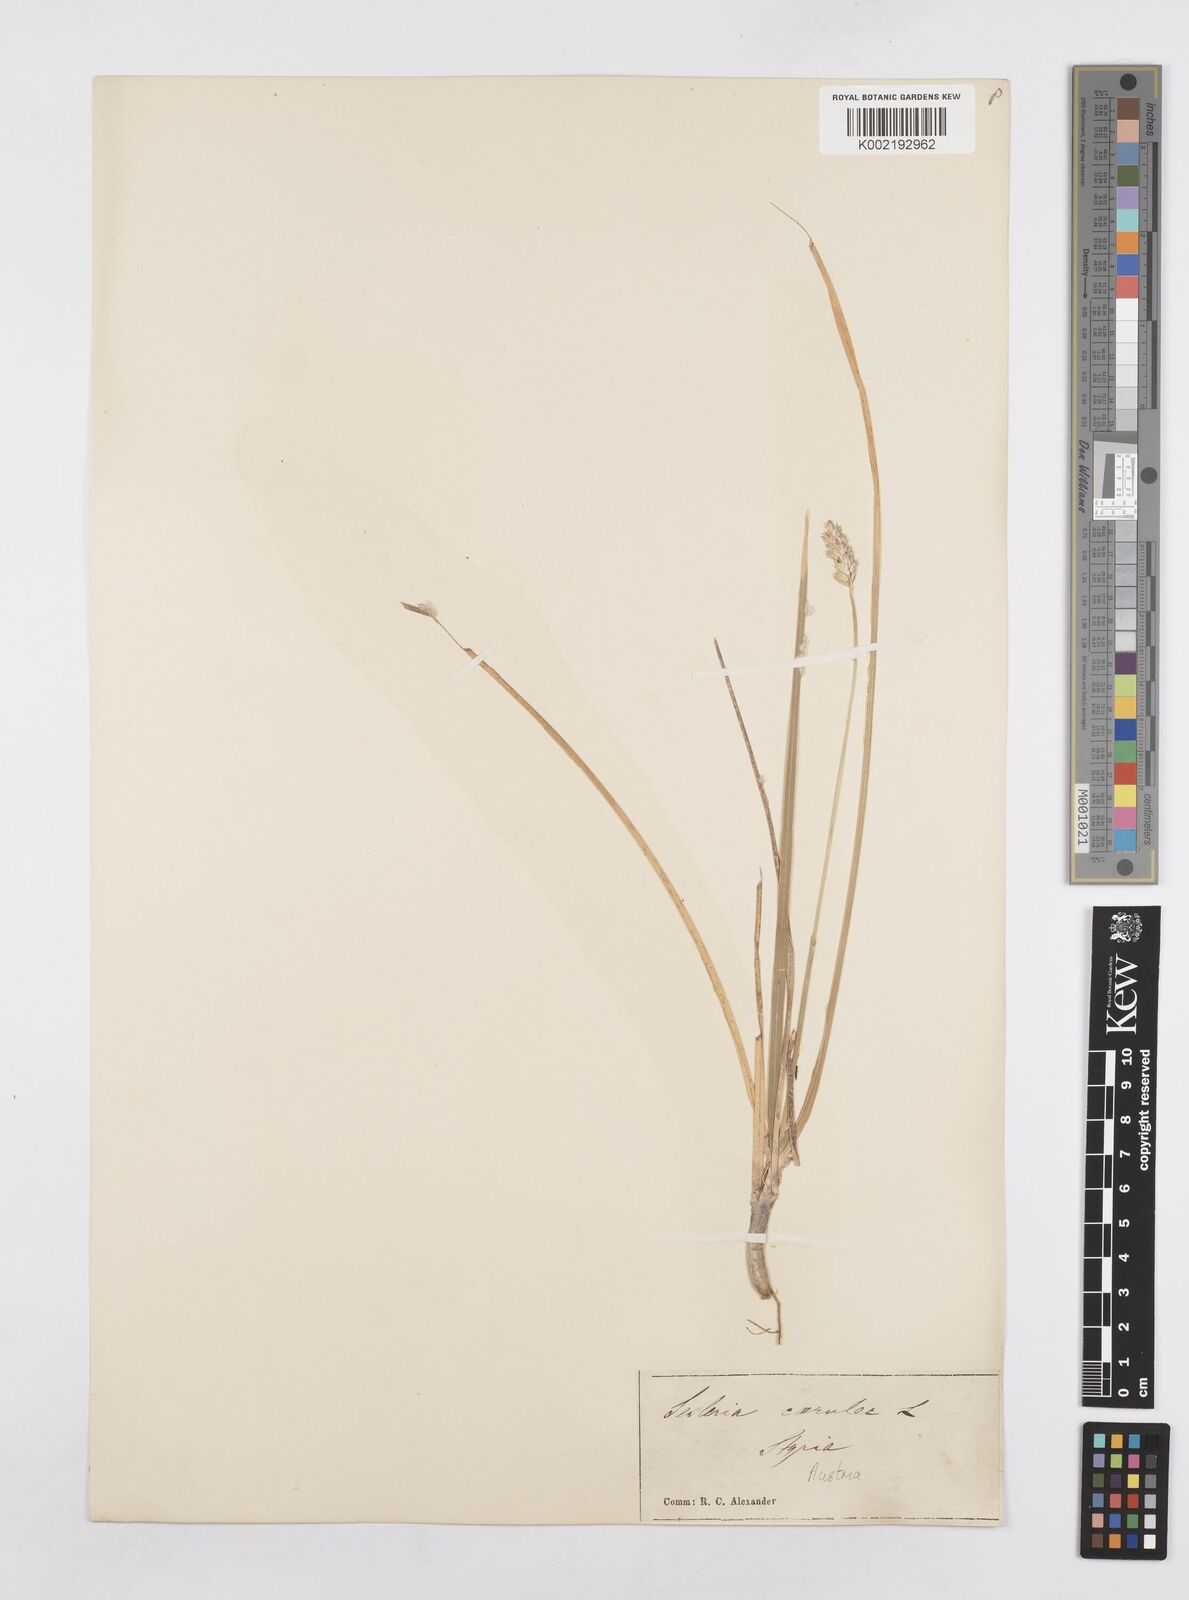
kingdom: Plantae
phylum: Tracheophyta
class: Liliopsida
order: Poales
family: Poaceae
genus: Sesleria
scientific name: Sesleria caerulea
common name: Blue moor-grass
